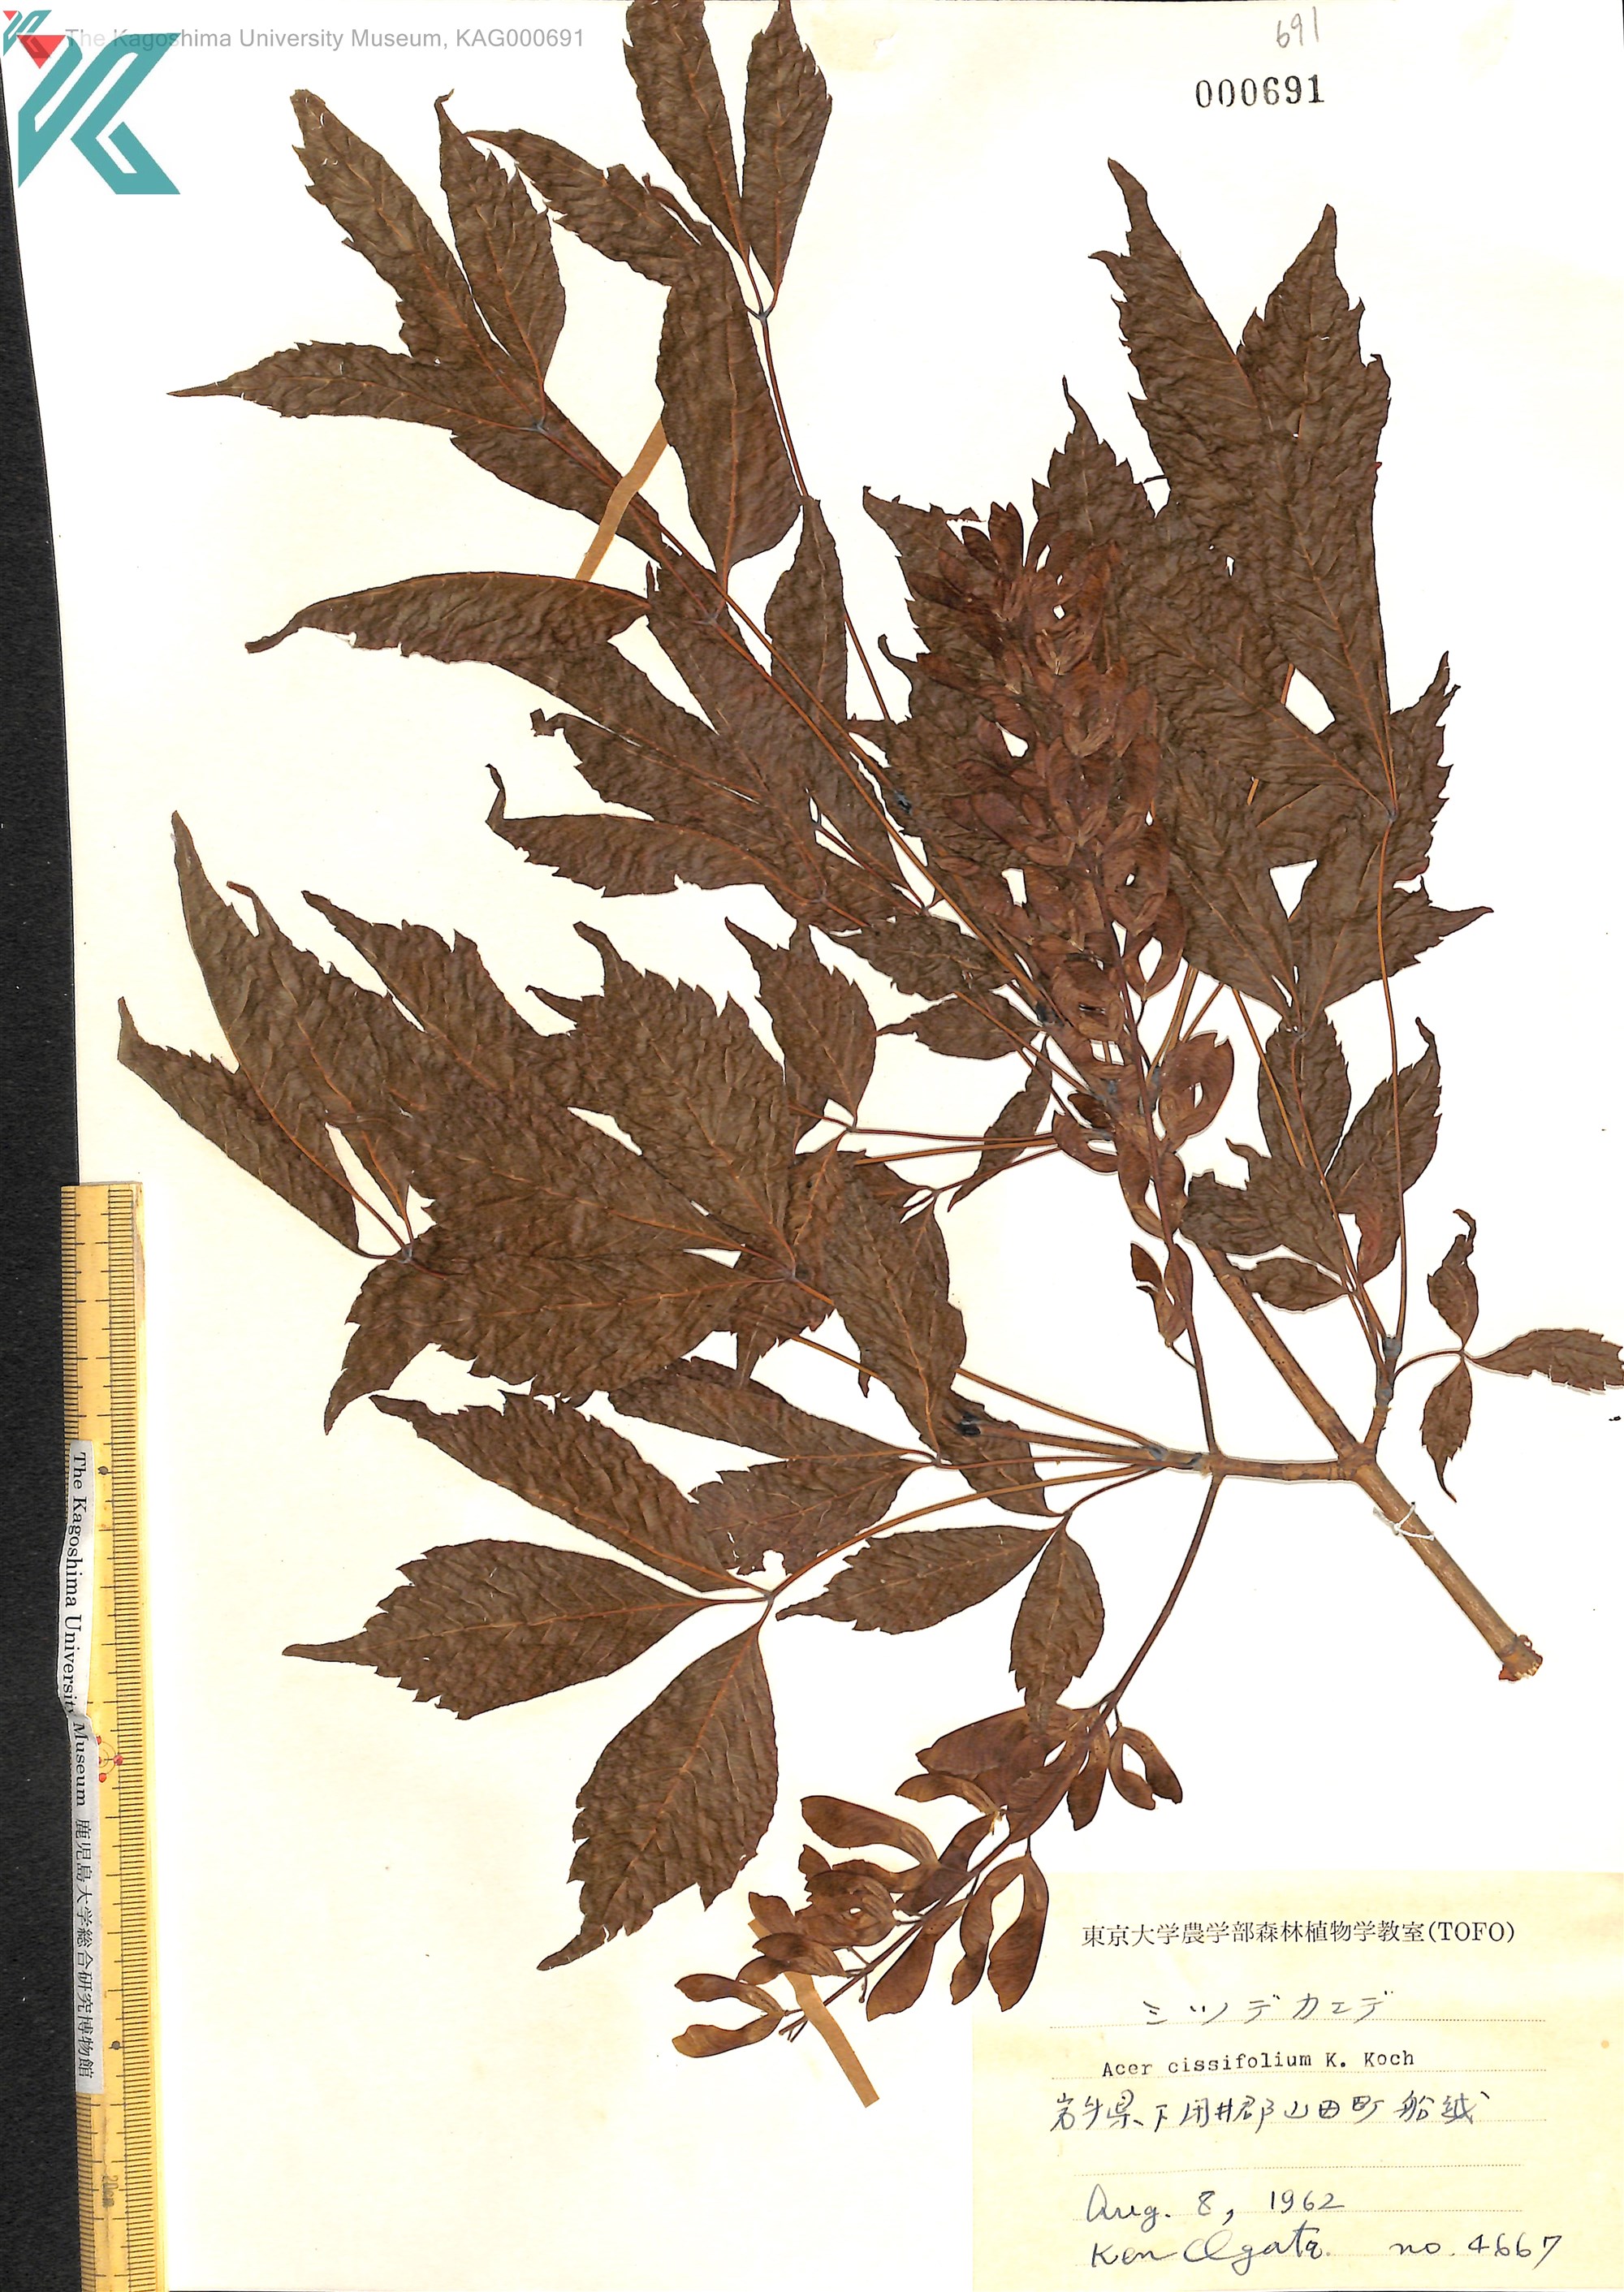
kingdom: Plantae
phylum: Tracheophyta
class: Magnoliopsida
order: Sapindales
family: Sapindaceae
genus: Acer
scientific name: Acer cissifolium
